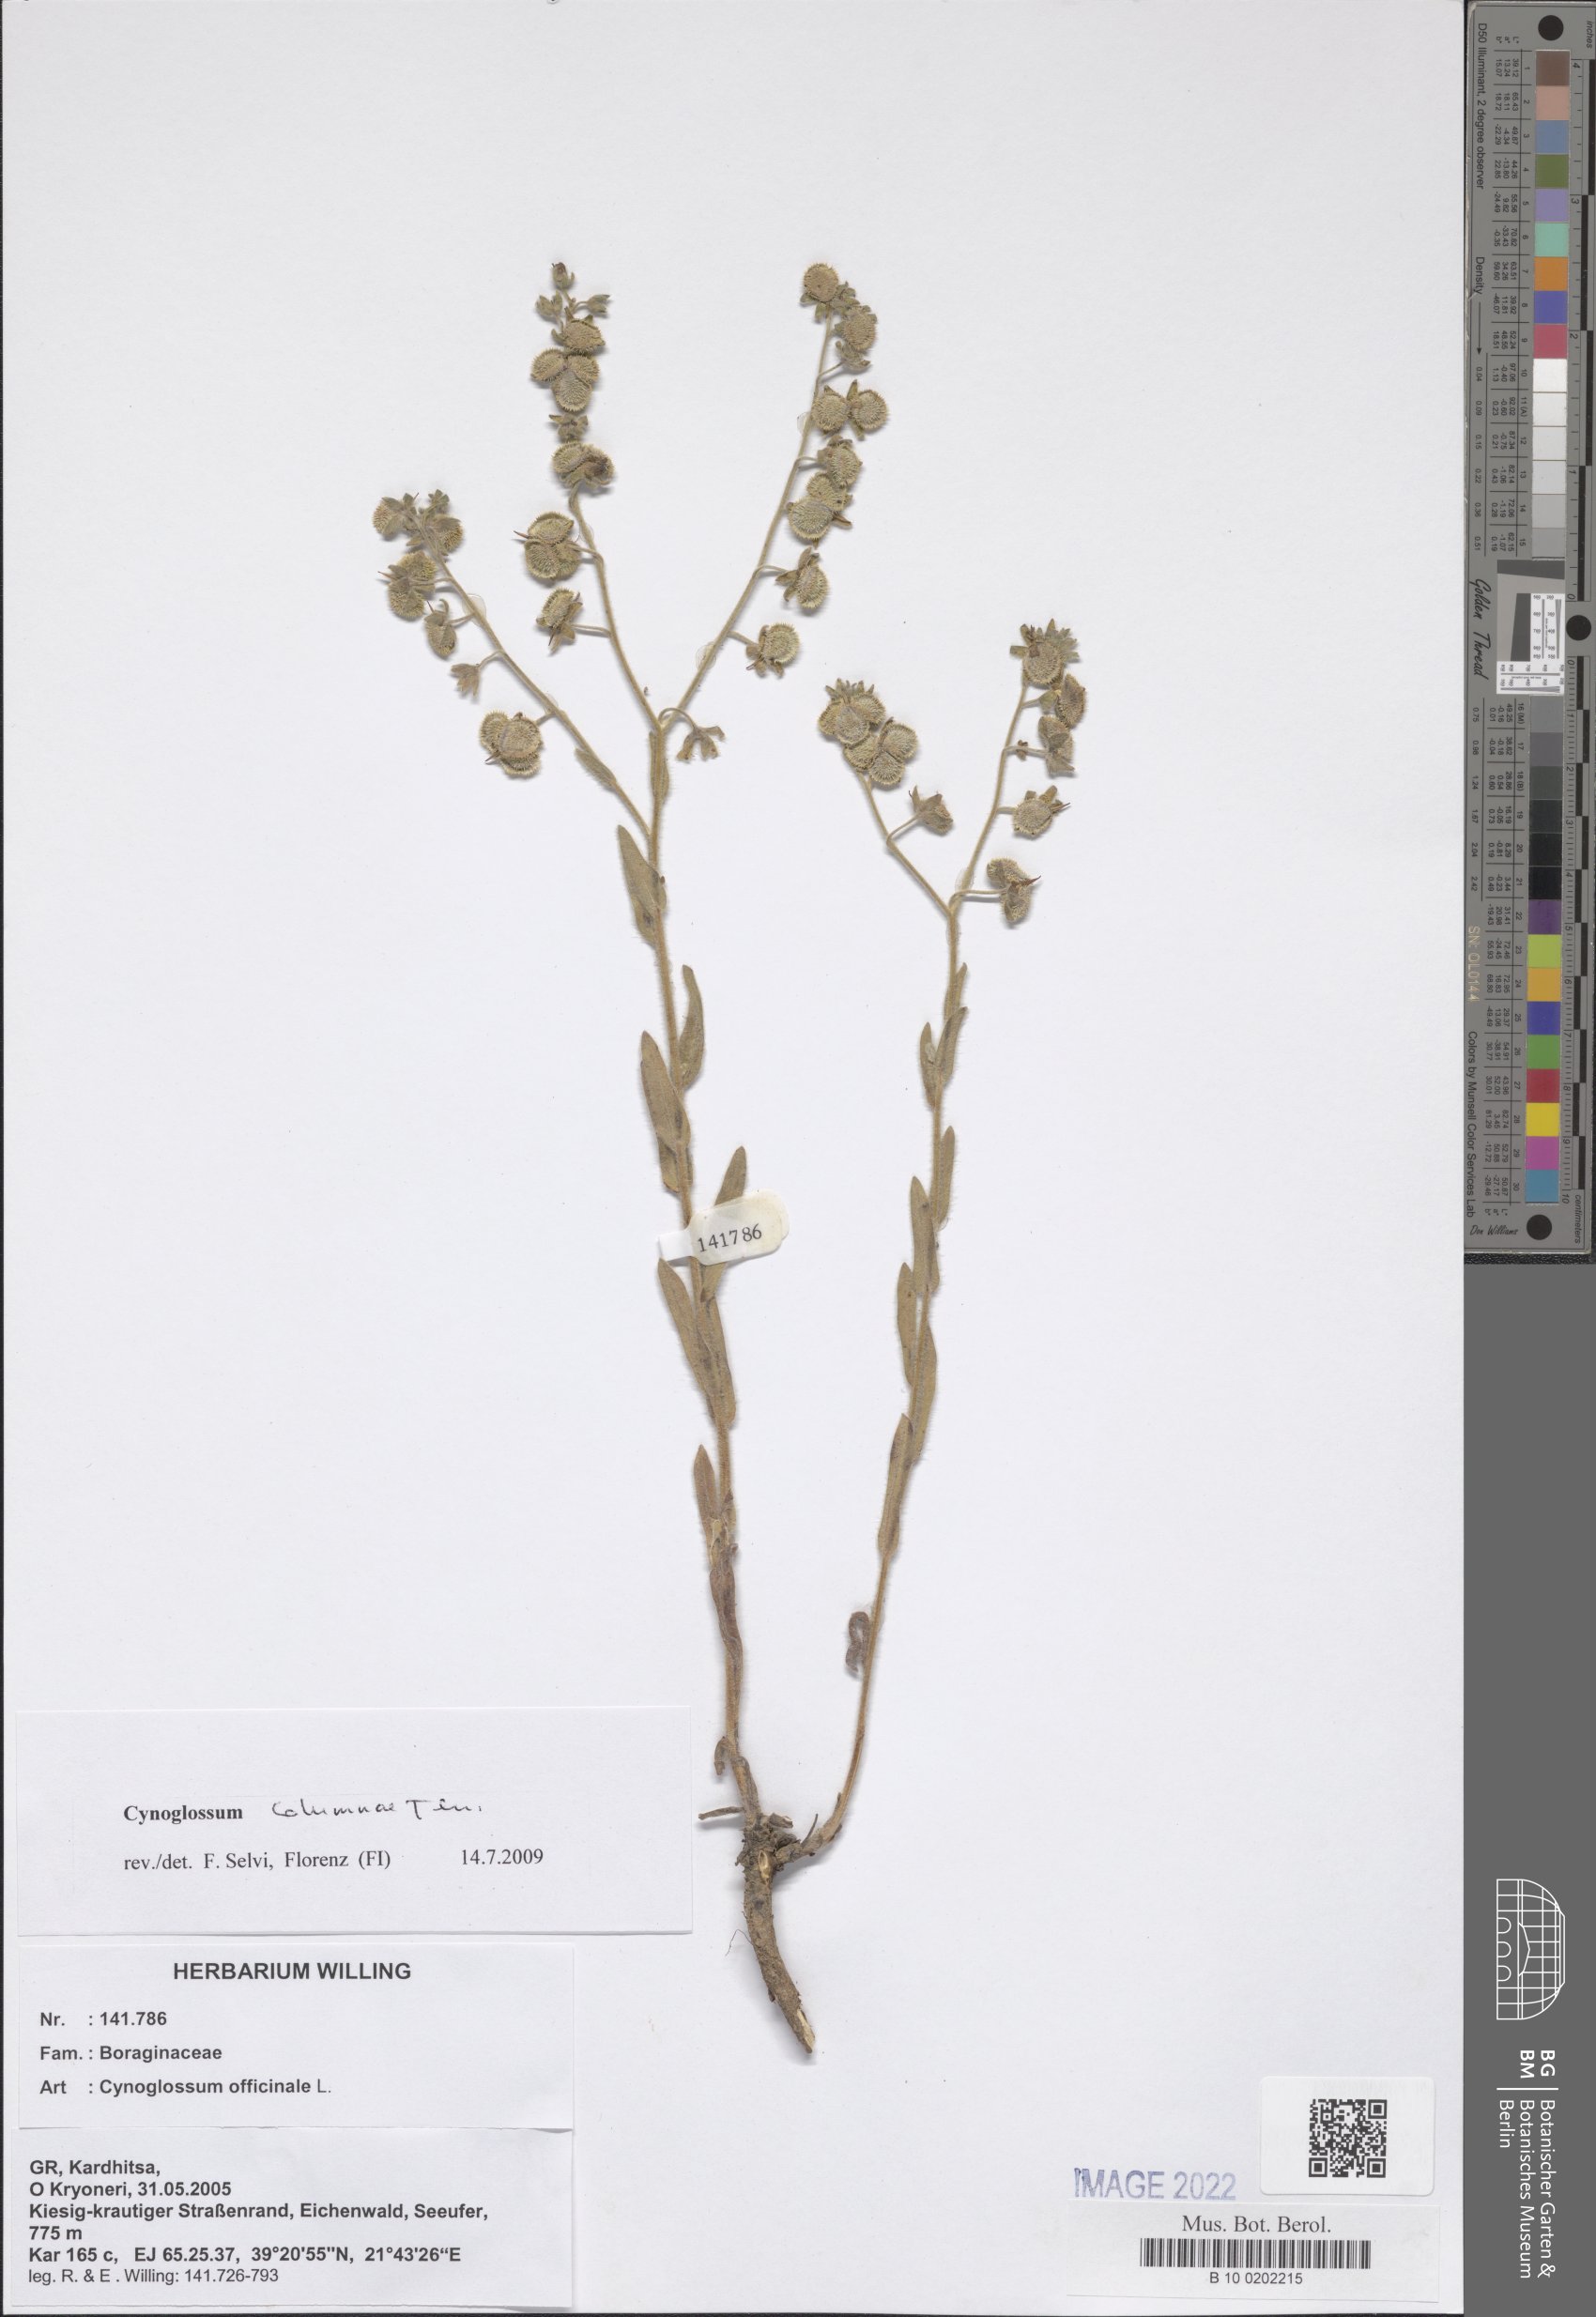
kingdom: Plantae
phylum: Tracheophyta
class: Magnoliopsida
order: Boraginales
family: Boraginaceae
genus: Rindera
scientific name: Rindera columnae
